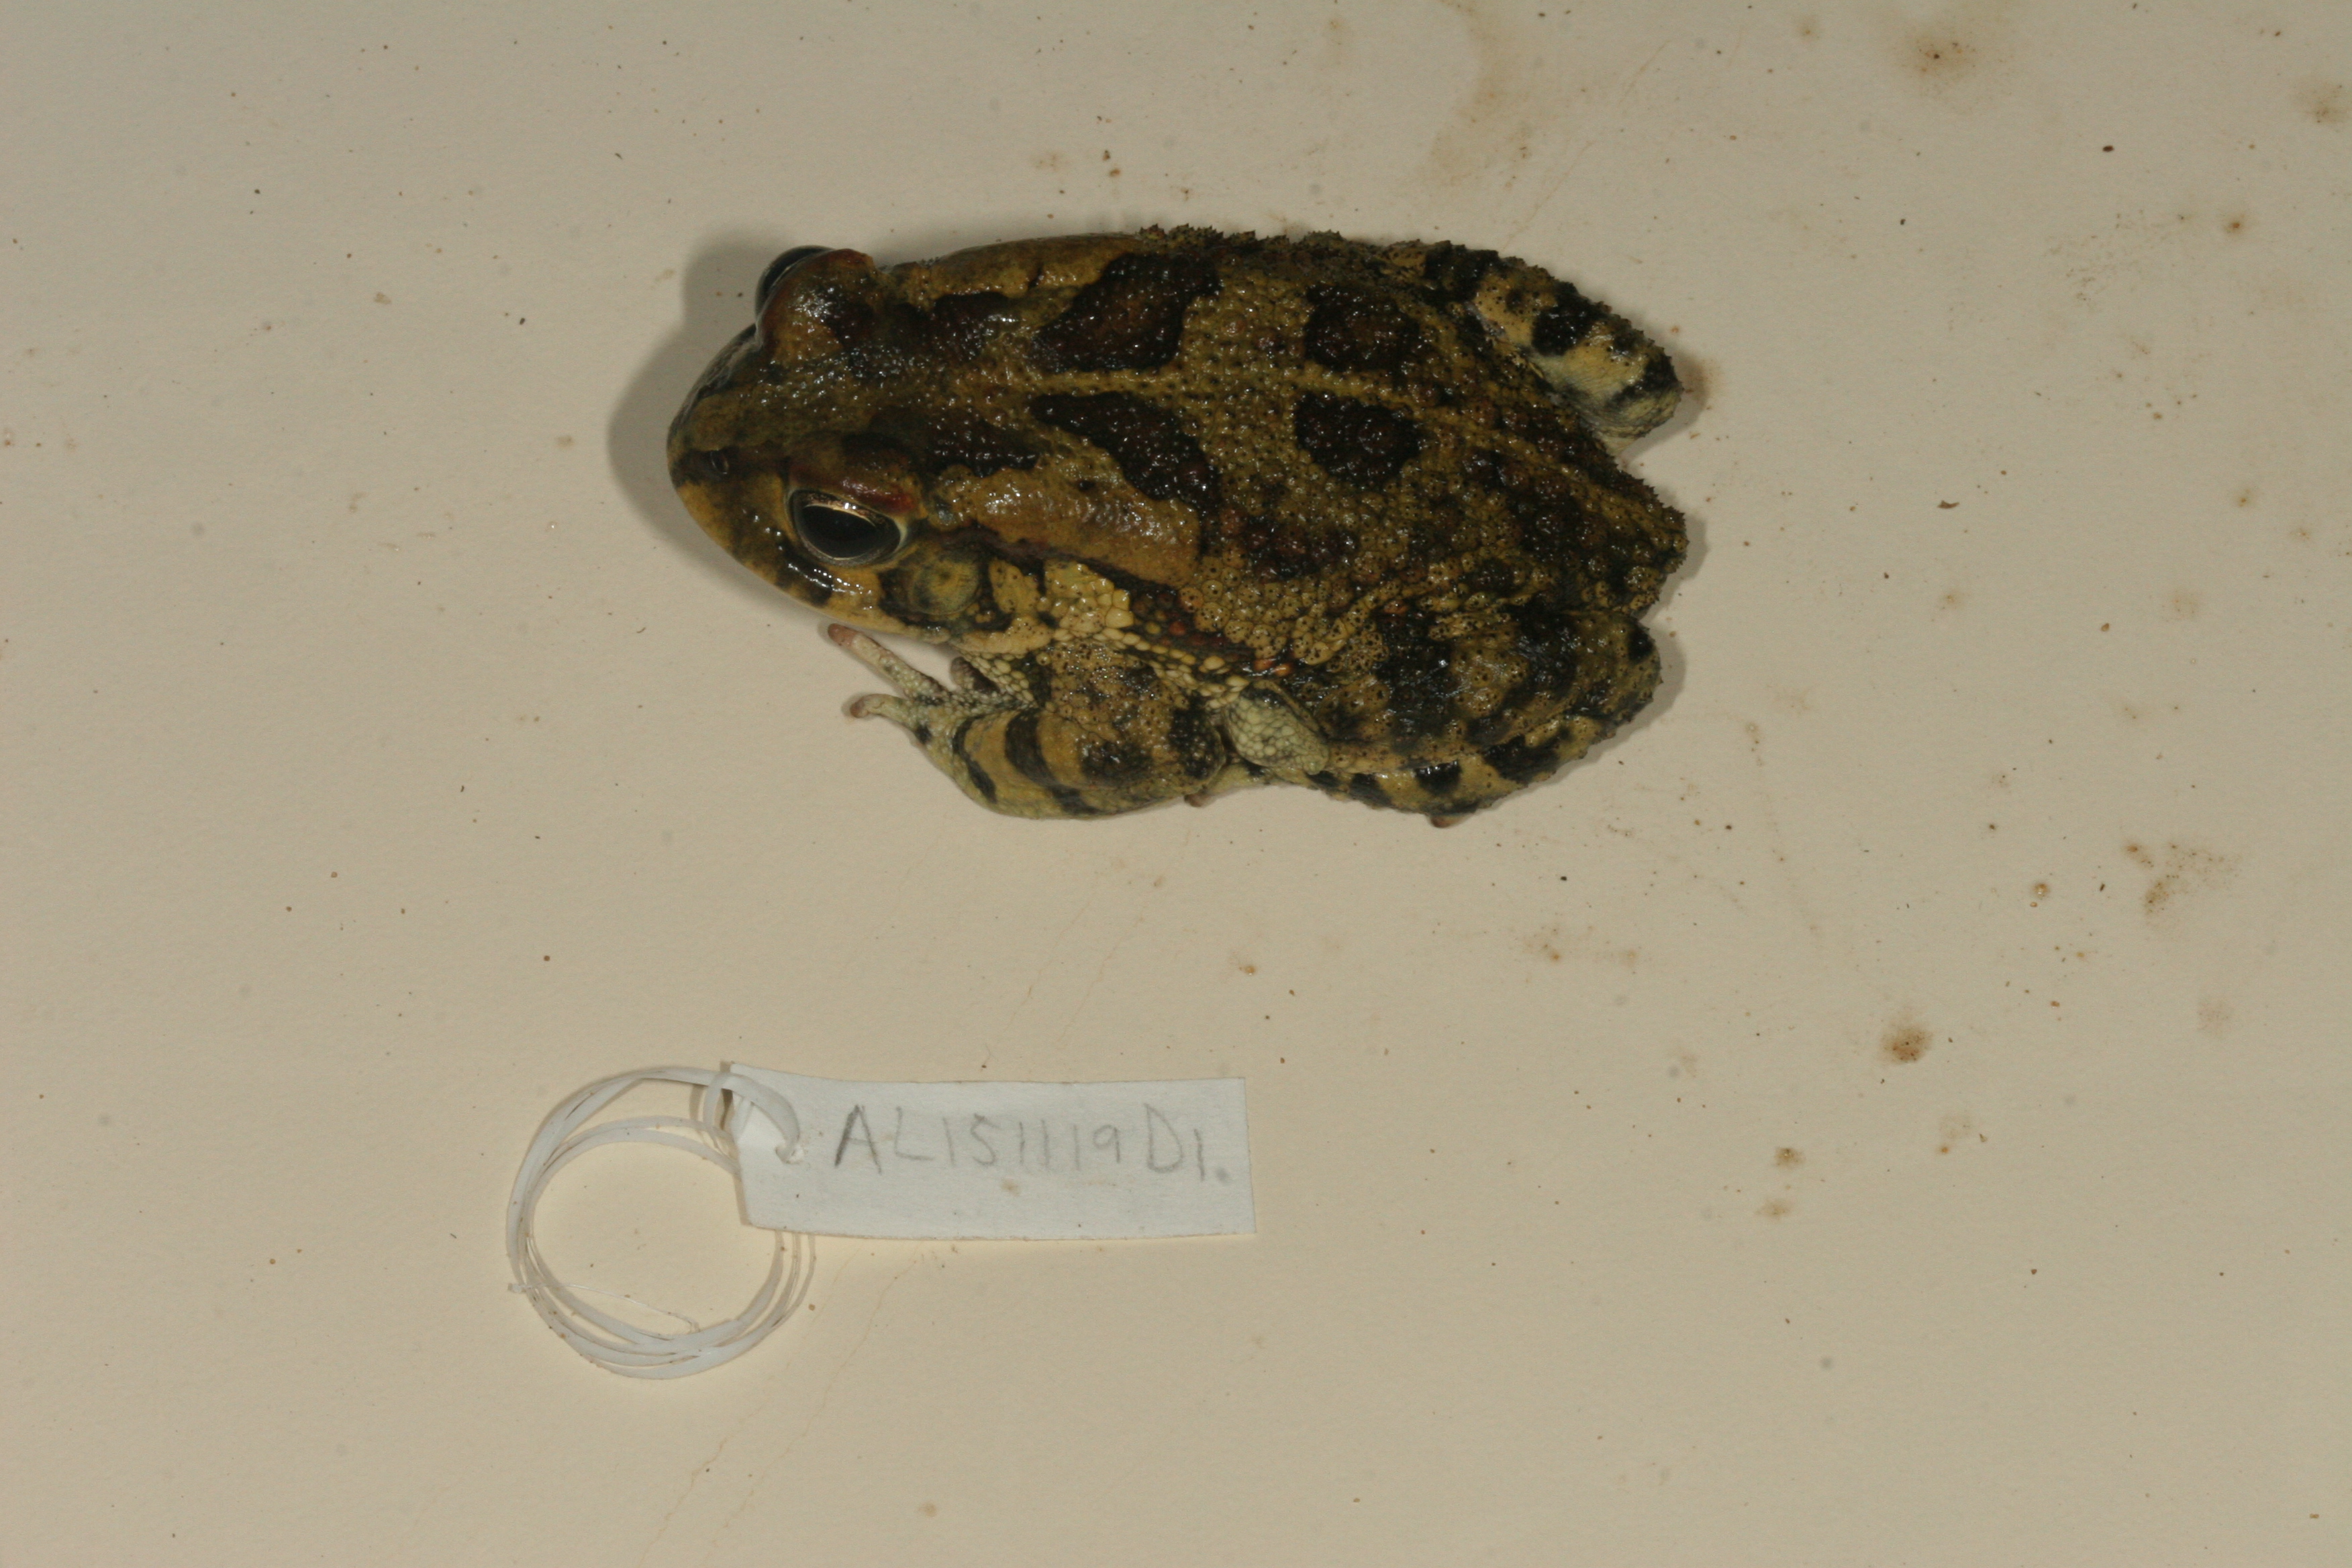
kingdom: Animalia
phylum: Chordata
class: Amphibia
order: Anura
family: Bufonidae
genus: Sclerophrys
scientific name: Sclerophrys gutturalis
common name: African common toad
